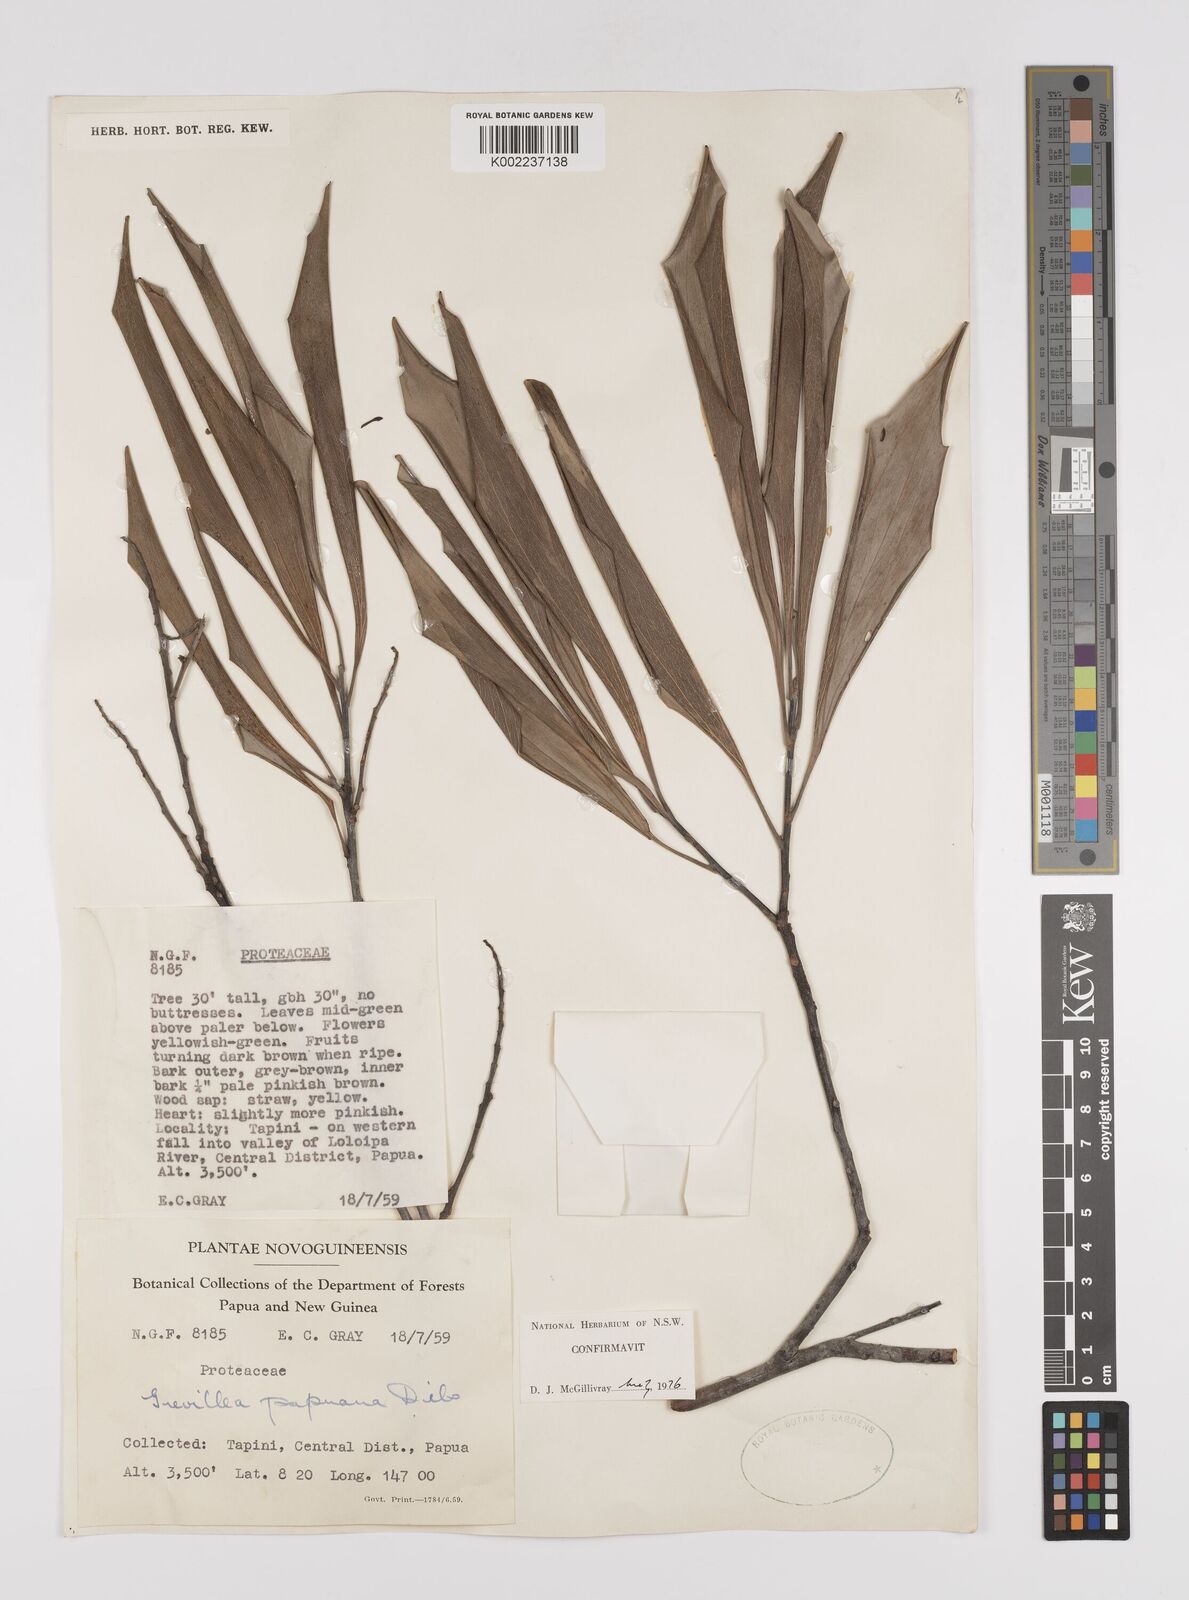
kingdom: Plantae
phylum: Tracheophyta
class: Magnoliopsida
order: Proteales
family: Proteaceae
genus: Grevillea
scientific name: Grevillea papuana
